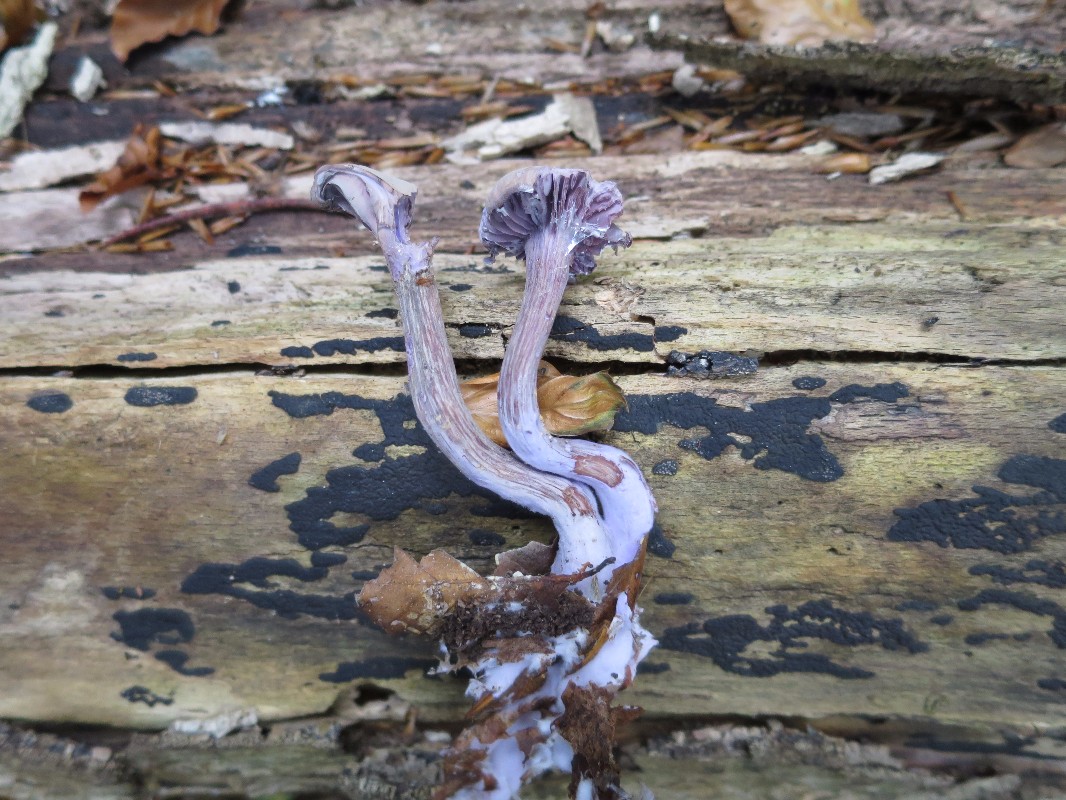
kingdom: Fungi
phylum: Basidiomycota
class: Agaricomycetes
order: Agaricales
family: Hydnangiaceae
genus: Laccaria
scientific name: Laccaria amethystina
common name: violet ametysthat
